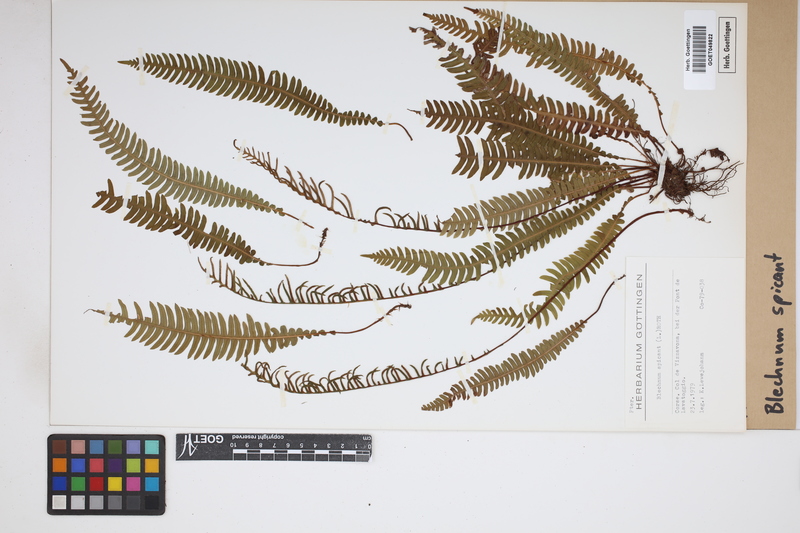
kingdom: Plantae
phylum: Tracheophyta
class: Polypodiopsida
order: Polypodiales
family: Blechnaceae
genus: Struthiopteris
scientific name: Struthiopteris spicant
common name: Deer fern
